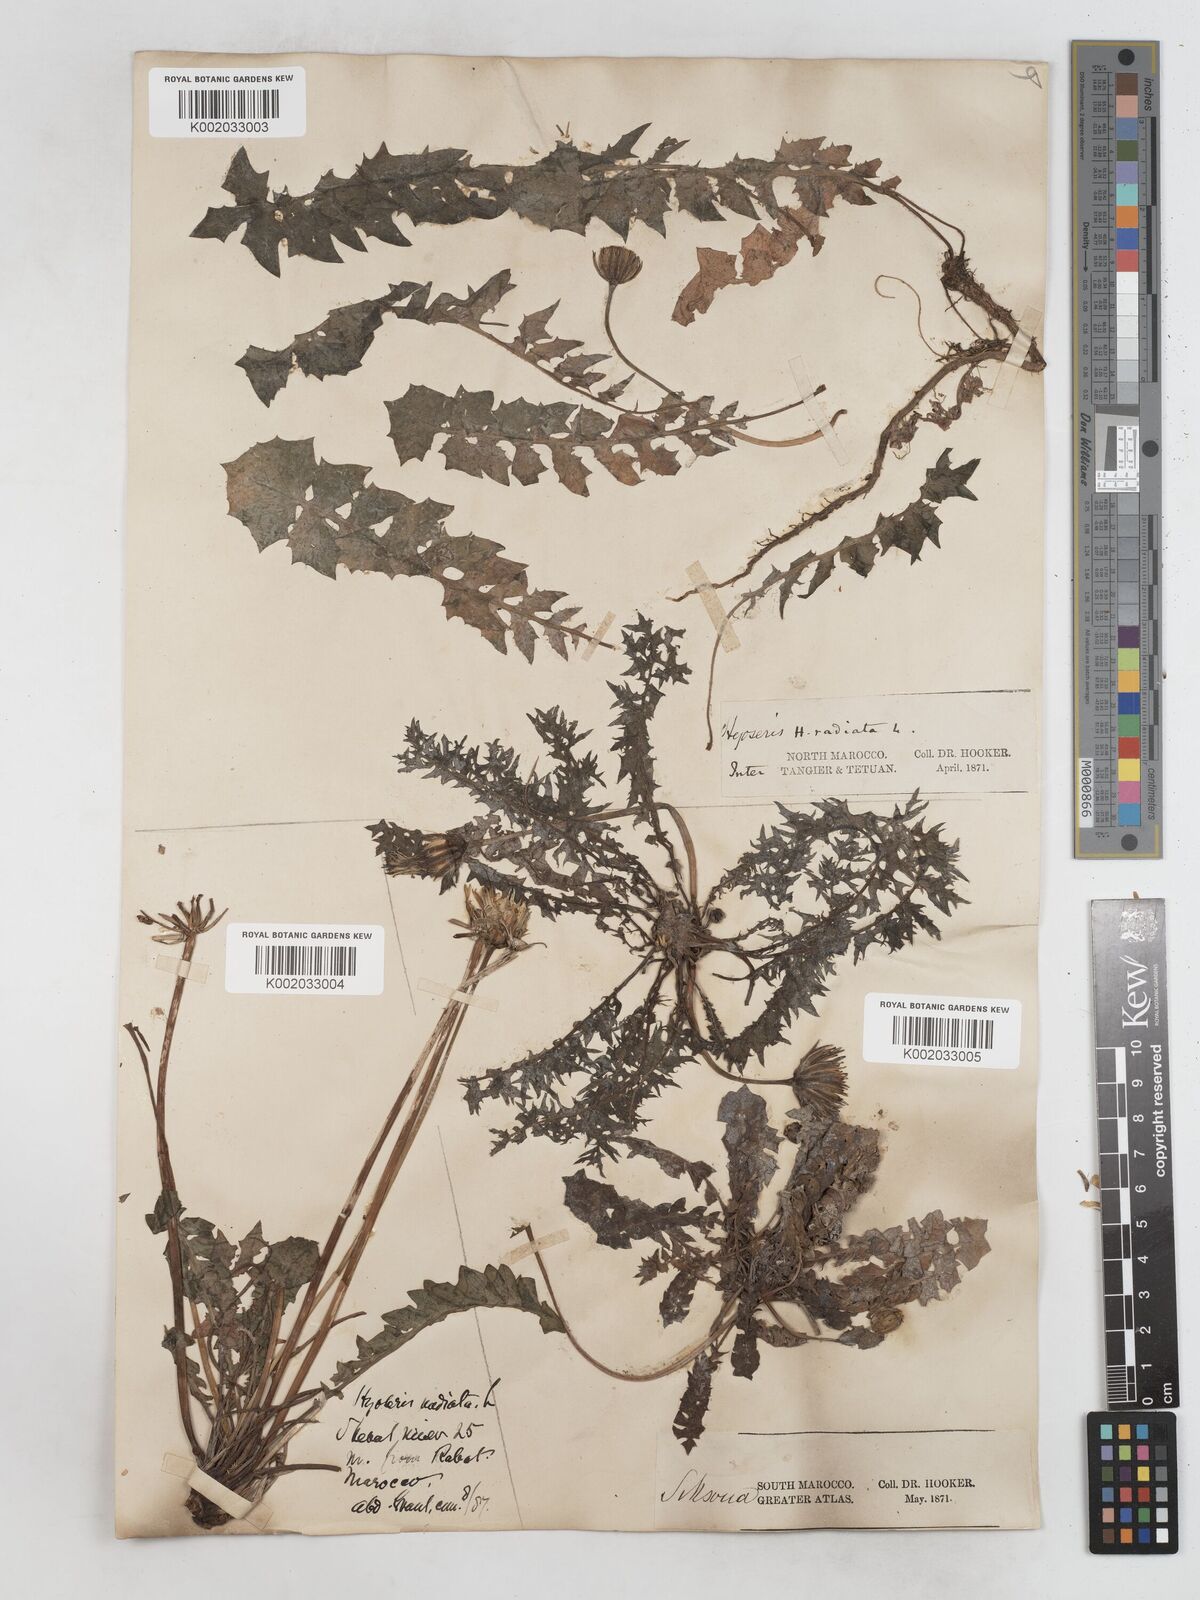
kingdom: Plantae
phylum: Tracheophyta
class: Magnoliopsida
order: Asterales
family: Asteraceae
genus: Hyoseris
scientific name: Hyoseris radiata
